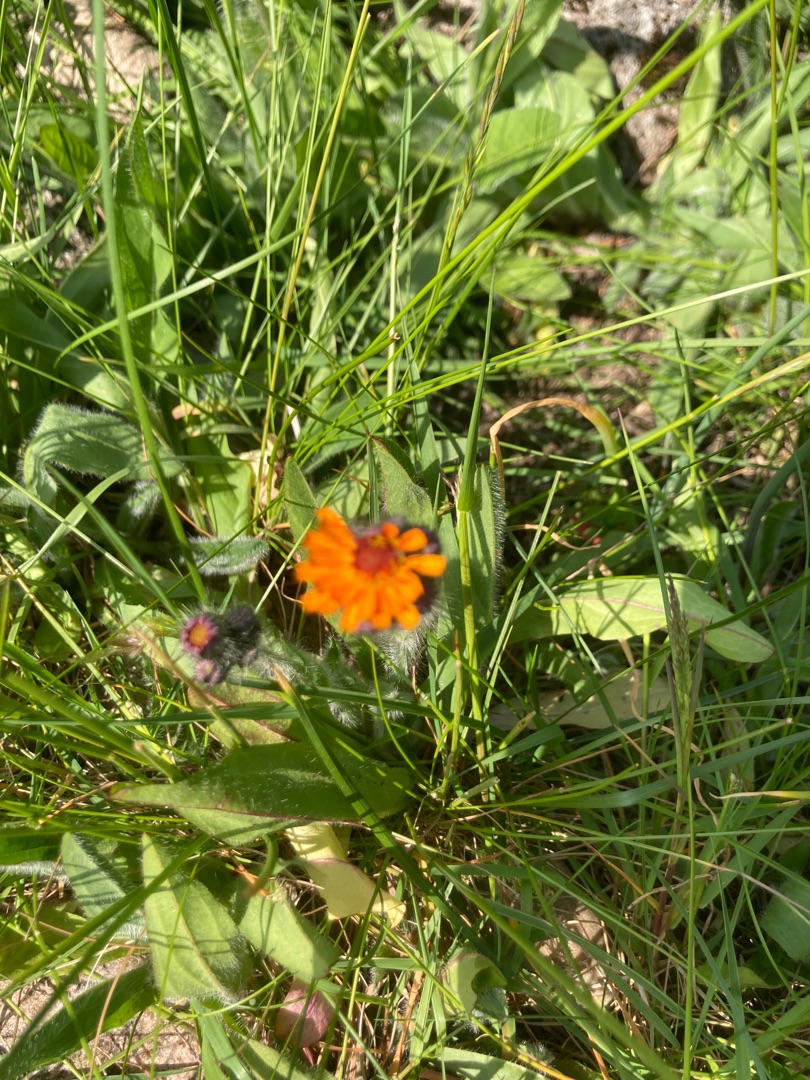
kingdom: Plantae
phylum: Tracheophyta
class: Magnoliopsida
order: Asterales
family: Asteraceae
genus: Pilosella
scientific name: Pilosella aurantiaca
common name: Pomerans-høgeurt
